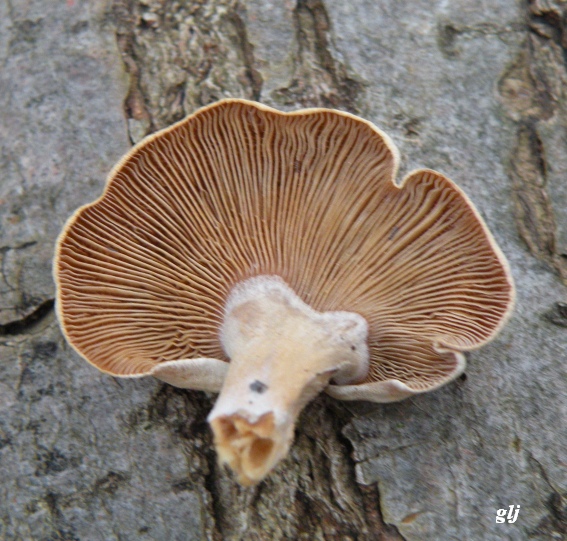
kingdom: Fungi
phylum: Basidiomycota
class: Agaricomycetes
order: Agaricales
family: Mycenaceae
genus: Panellus
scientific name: Panellus stipticus
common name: kliddet epaulethat
